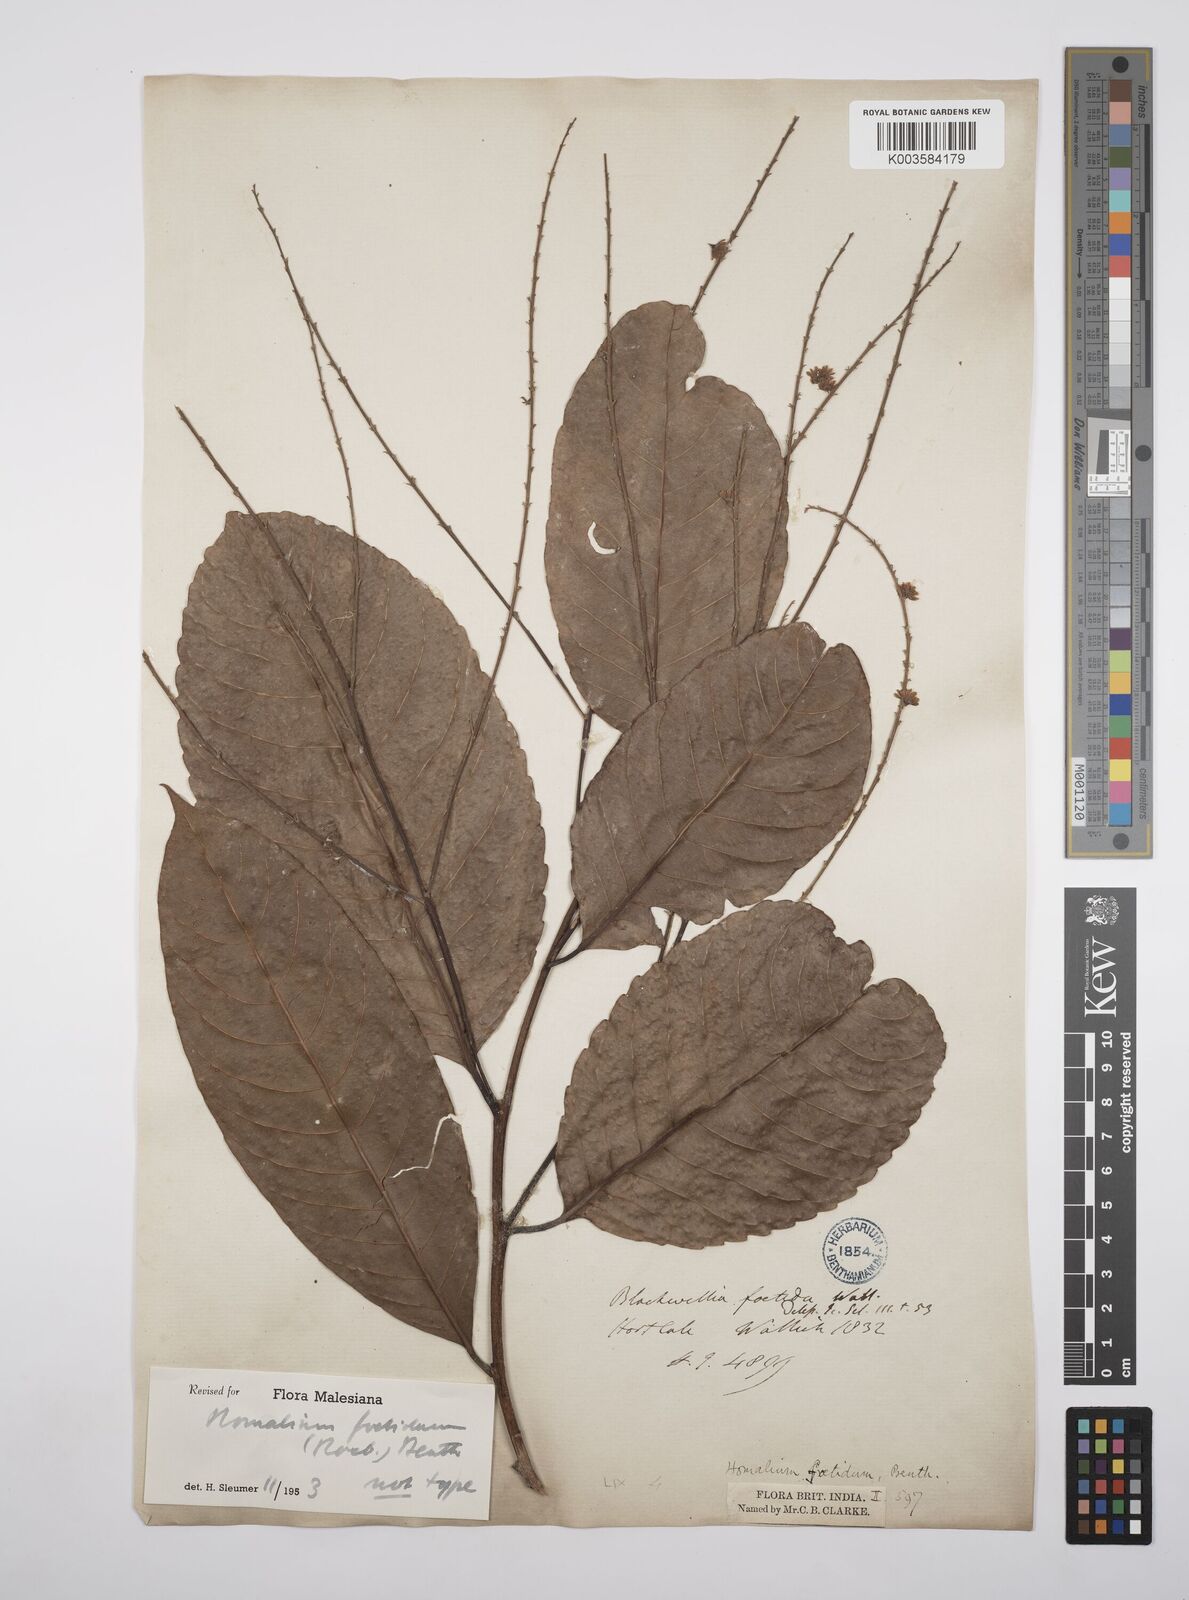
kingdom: Plantae
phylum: Tracheophyta
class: Magnoliopsida
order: Malpighiales
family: Salicaceae
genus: Homalium
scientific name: Homalium foetidum
